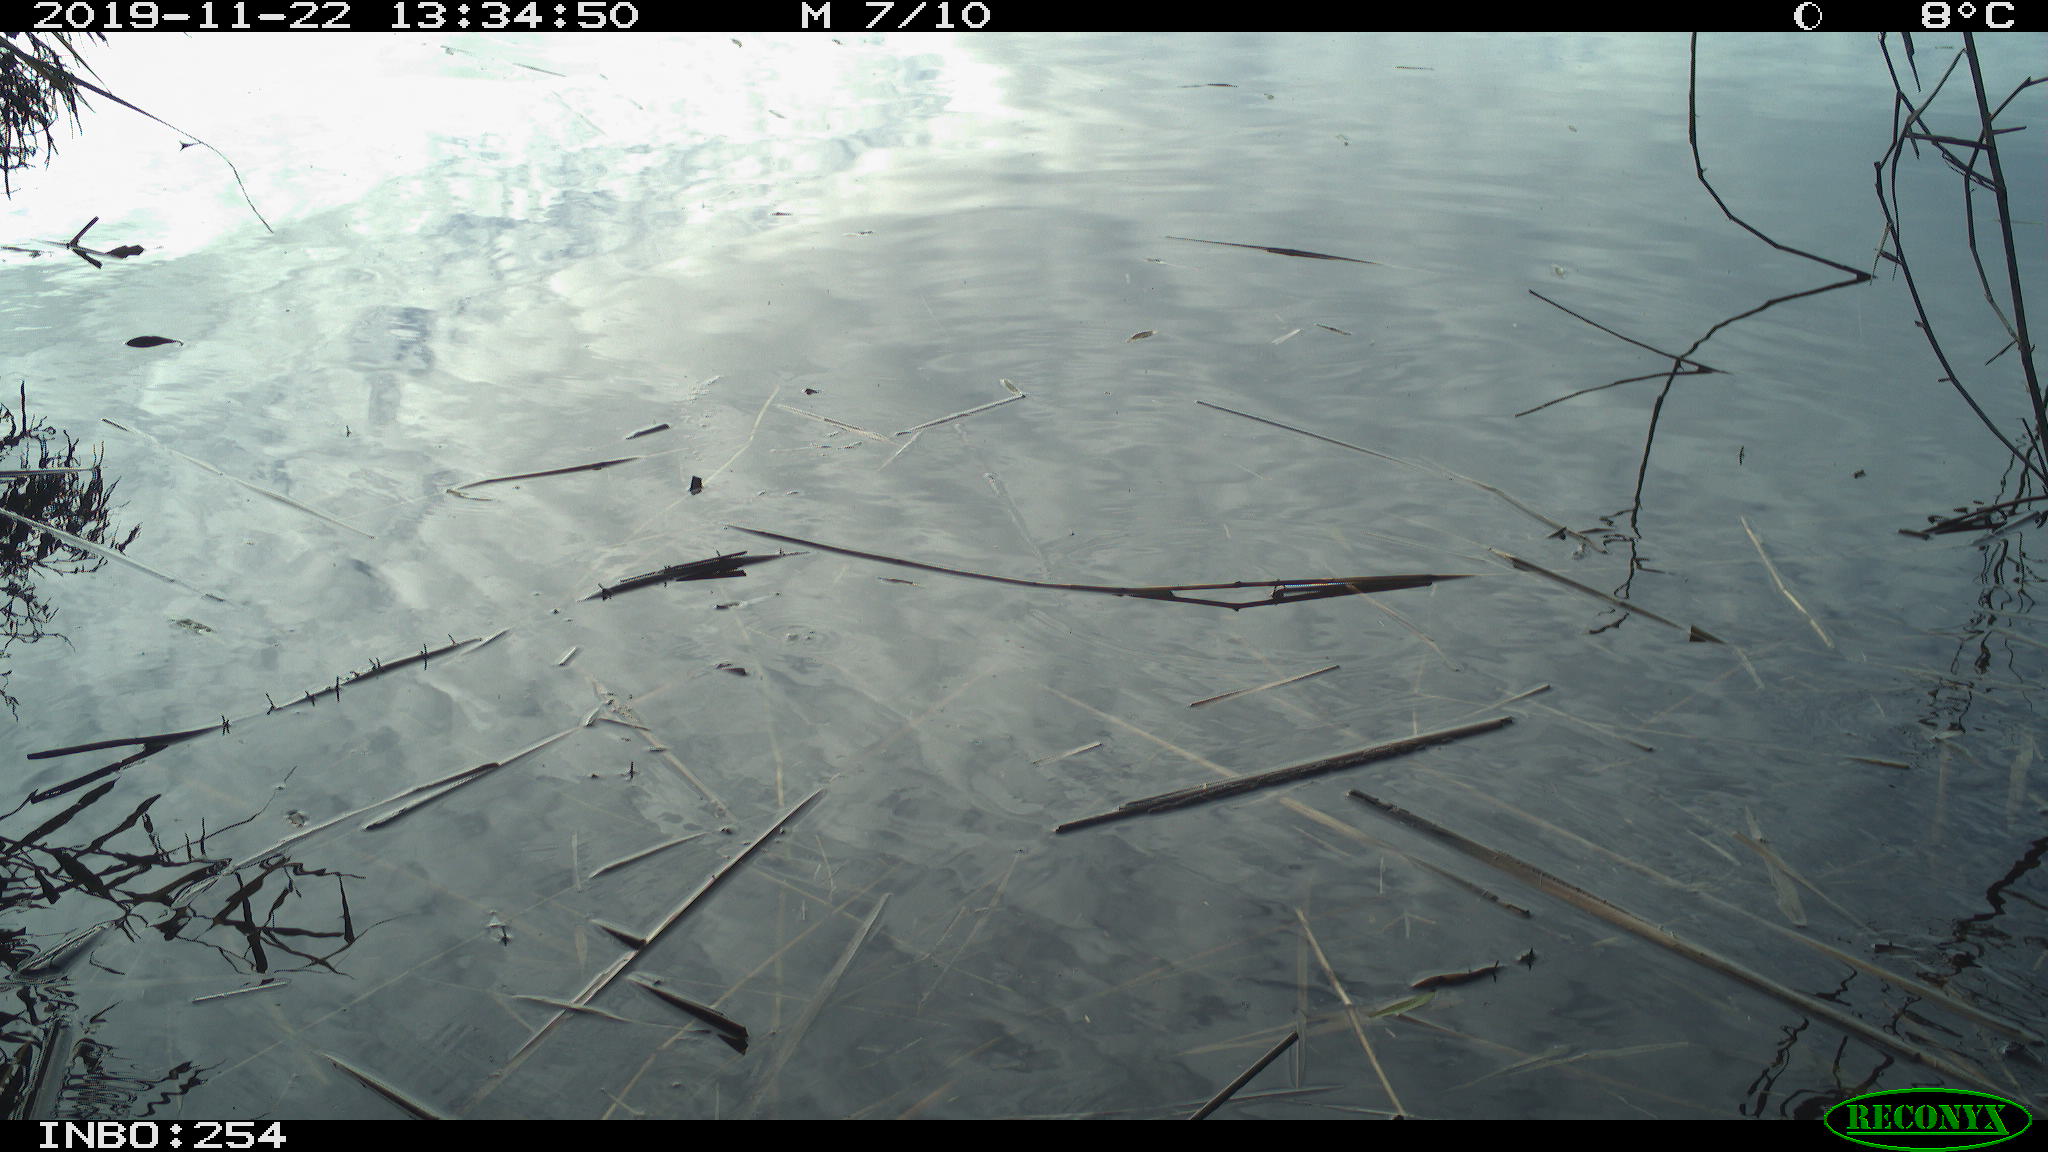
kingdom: Animalia
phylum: Chordata
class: Aves
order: Gruiformes
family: Rallidae
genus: Gallinula
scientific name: Gallinula chloropus
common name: Common moorhen
